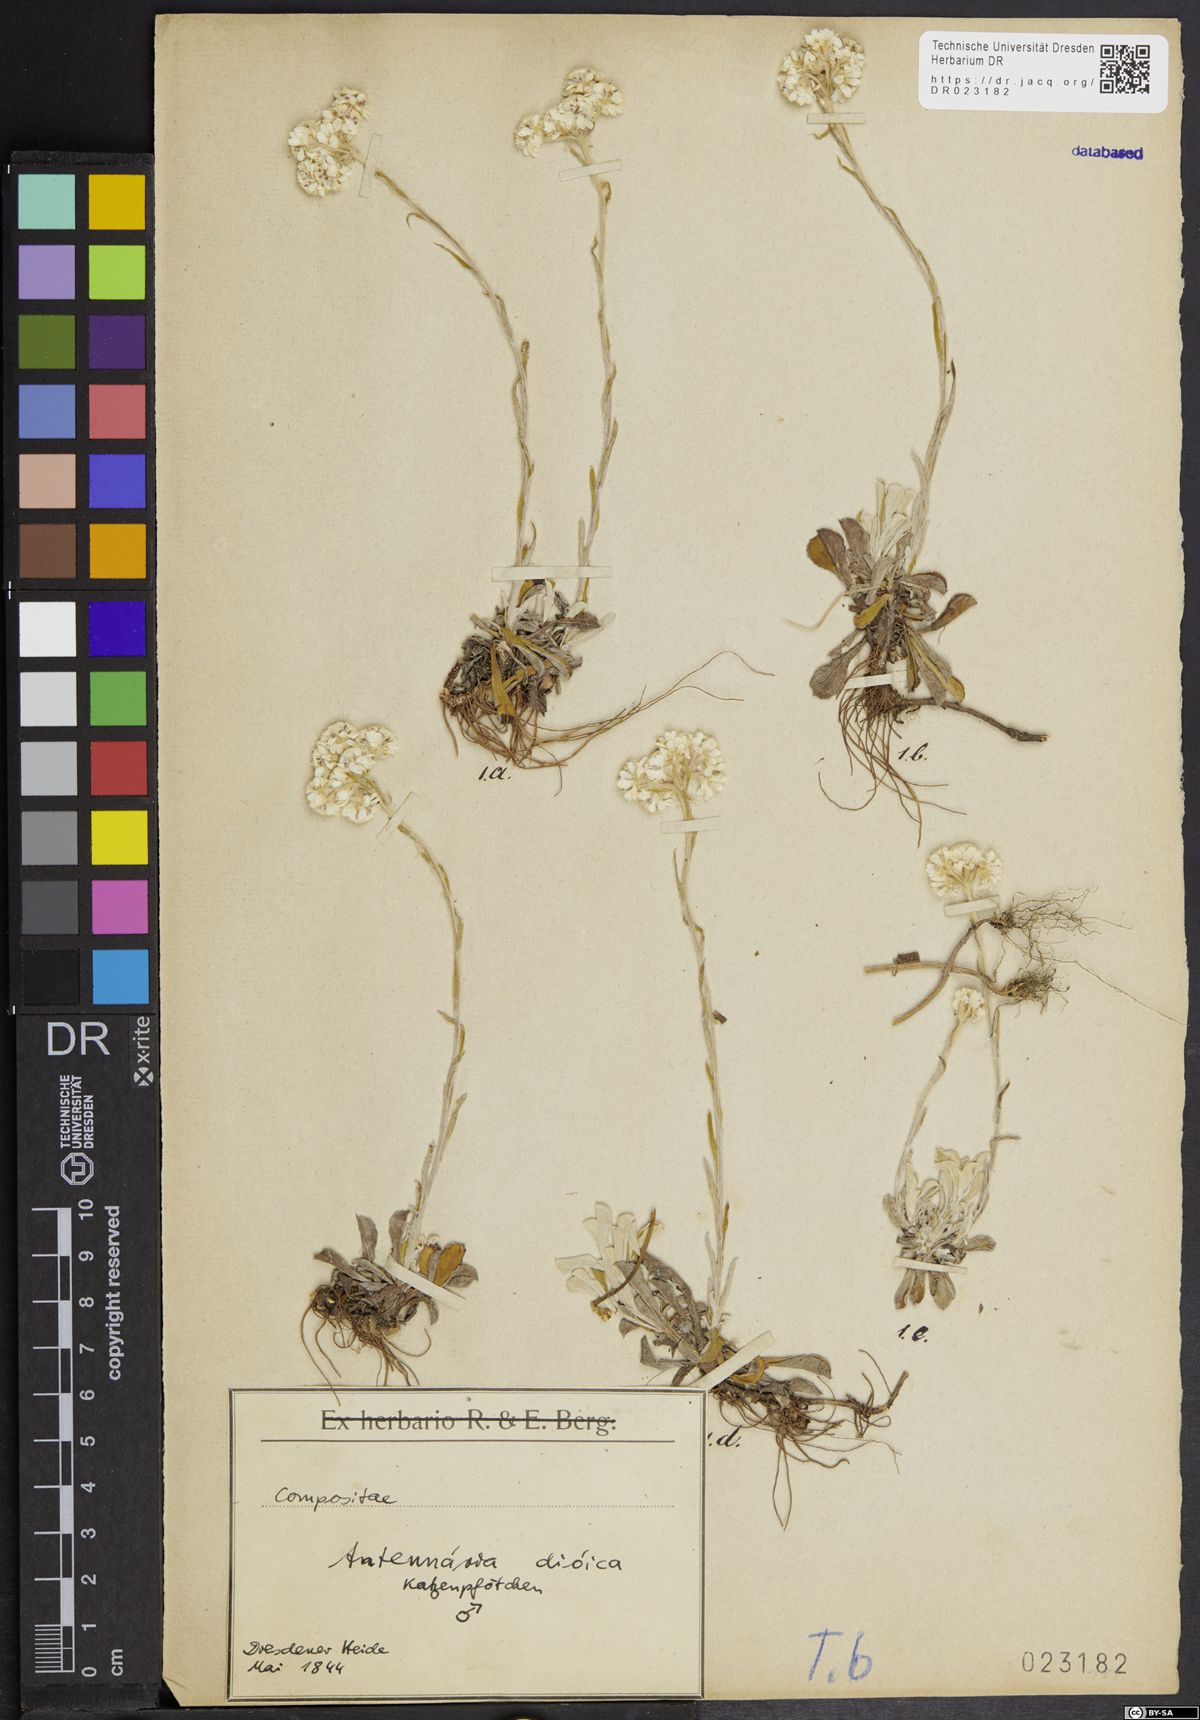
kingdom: Plantae
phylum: Tracheophyta
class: Magnoliopsida
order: Asterales
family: Asteraceae
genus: Antennaria
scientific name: Antennaria dioica
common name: Mountain everlasting
